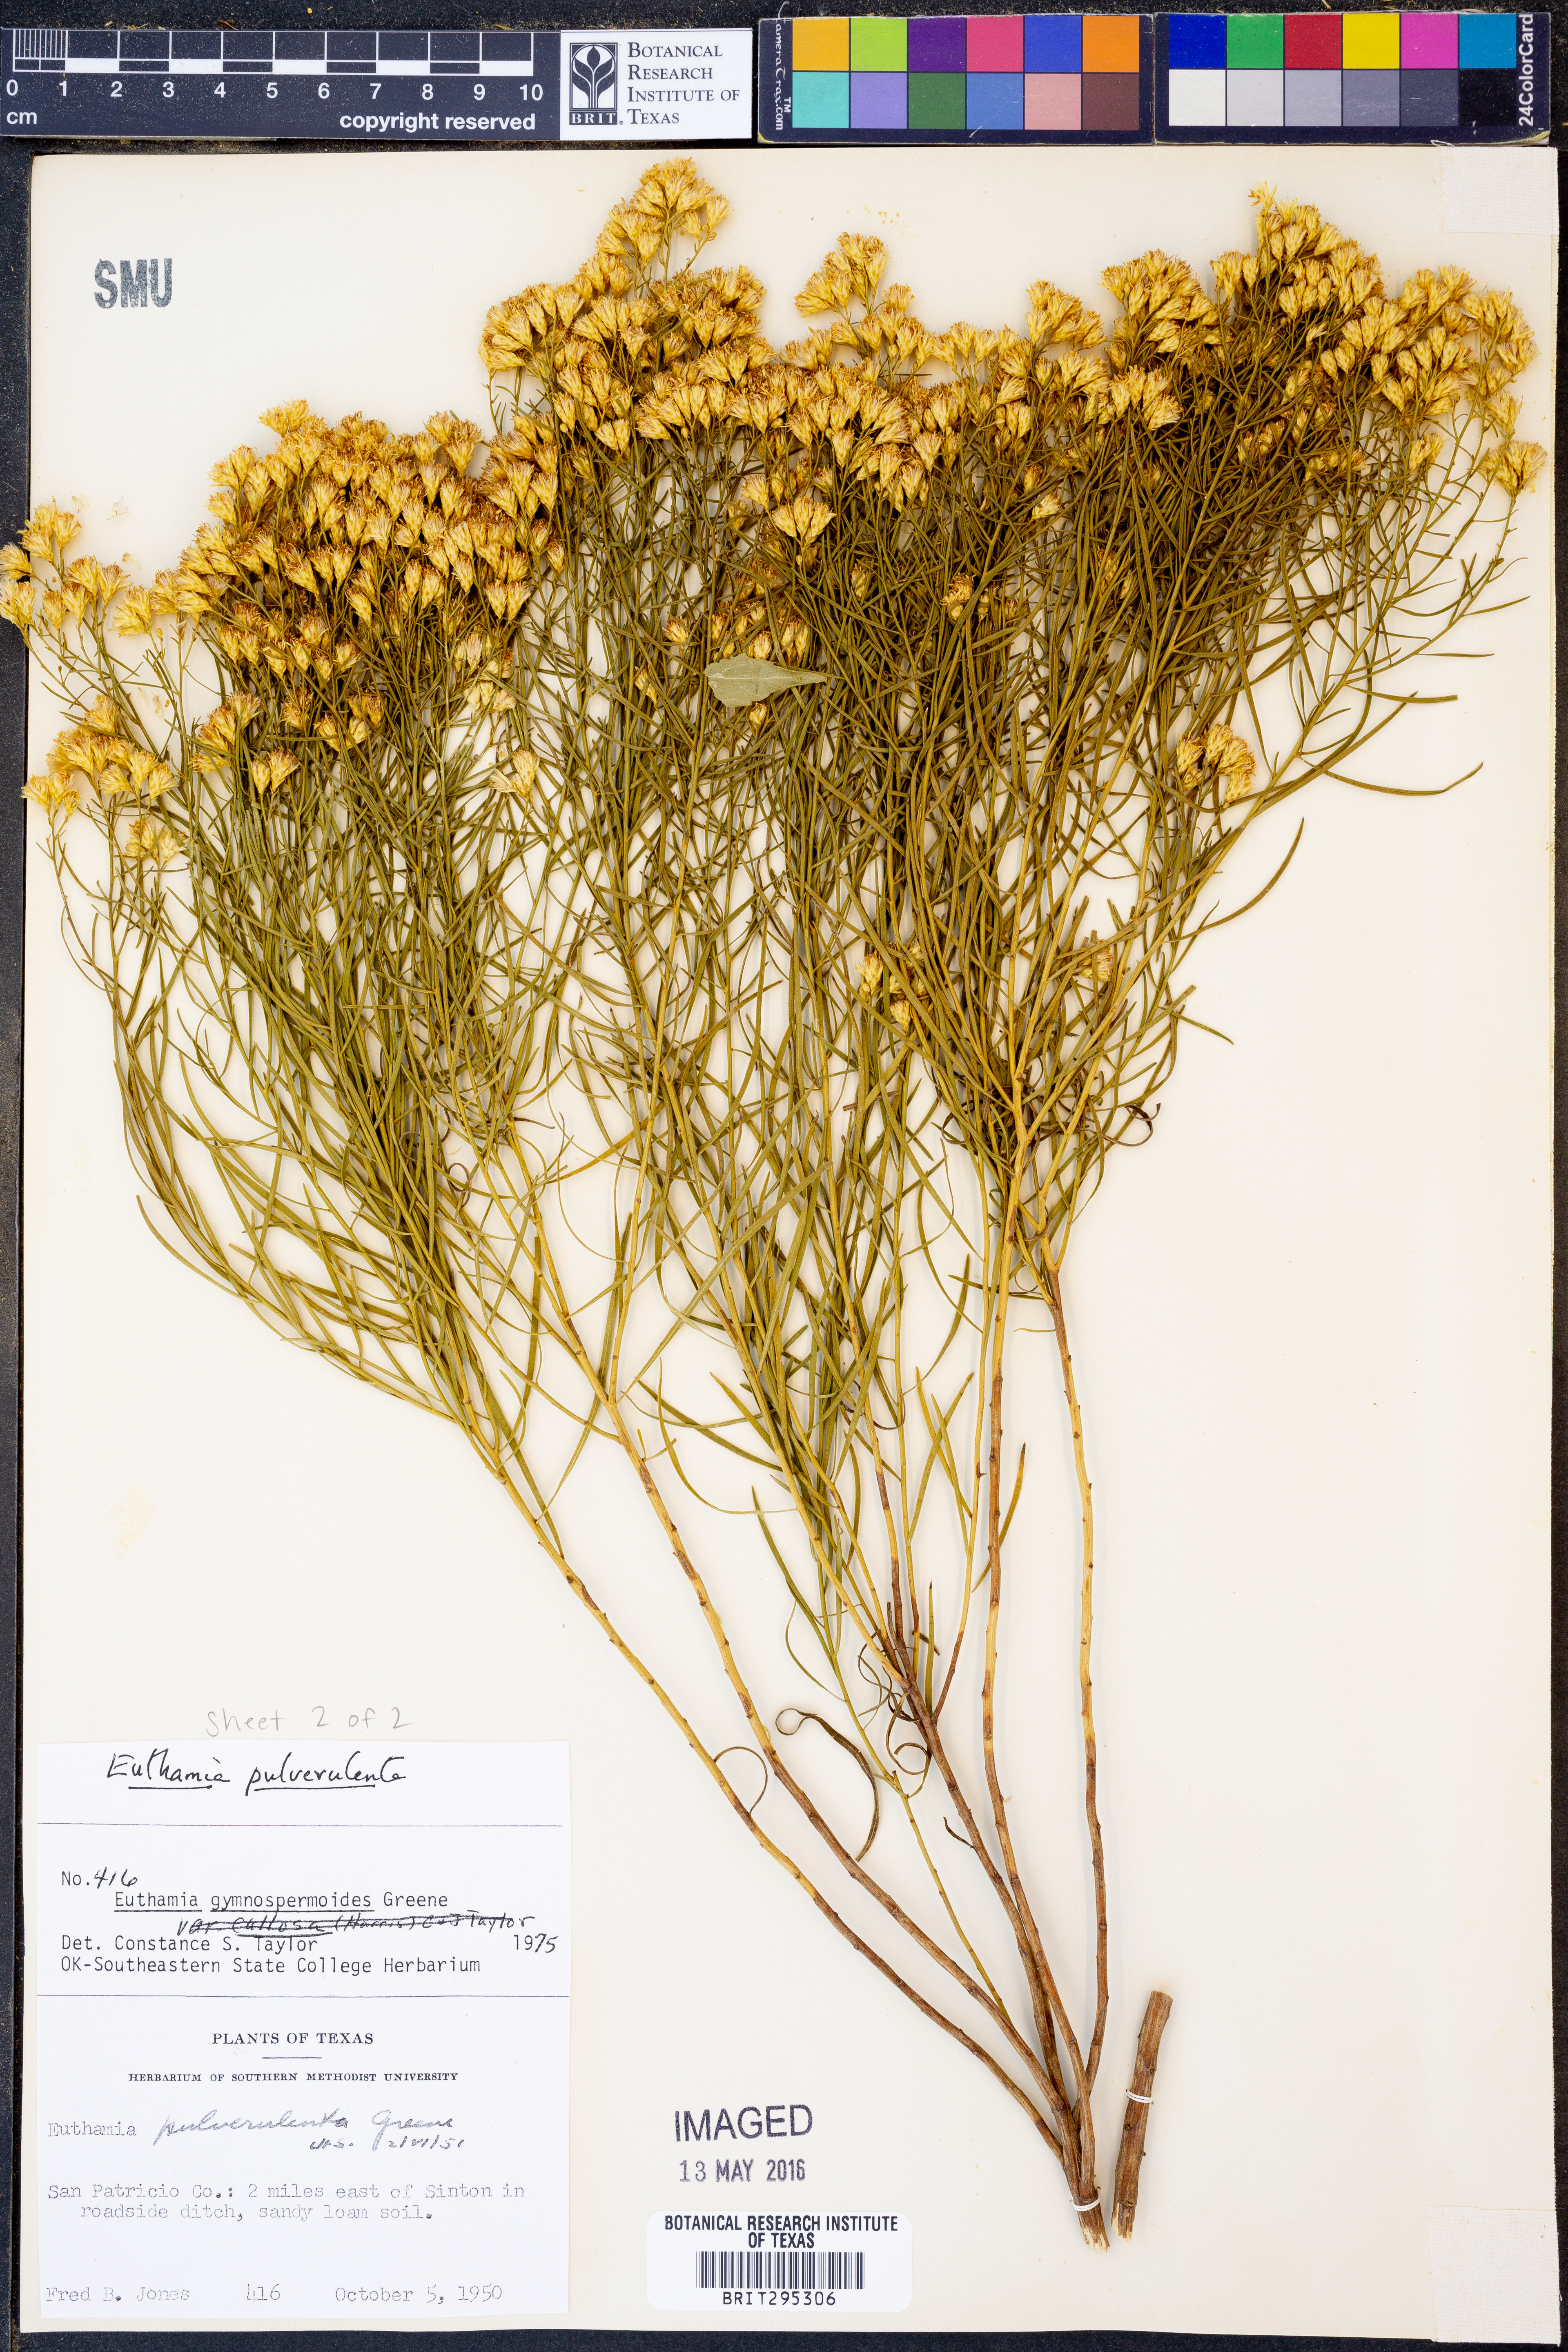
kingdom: Plantae
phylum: Tracheophyta
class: Magnoliopsida
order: Asterales
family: Asteraceae
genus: Euthamia
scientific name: Euthamia pulverulenta
